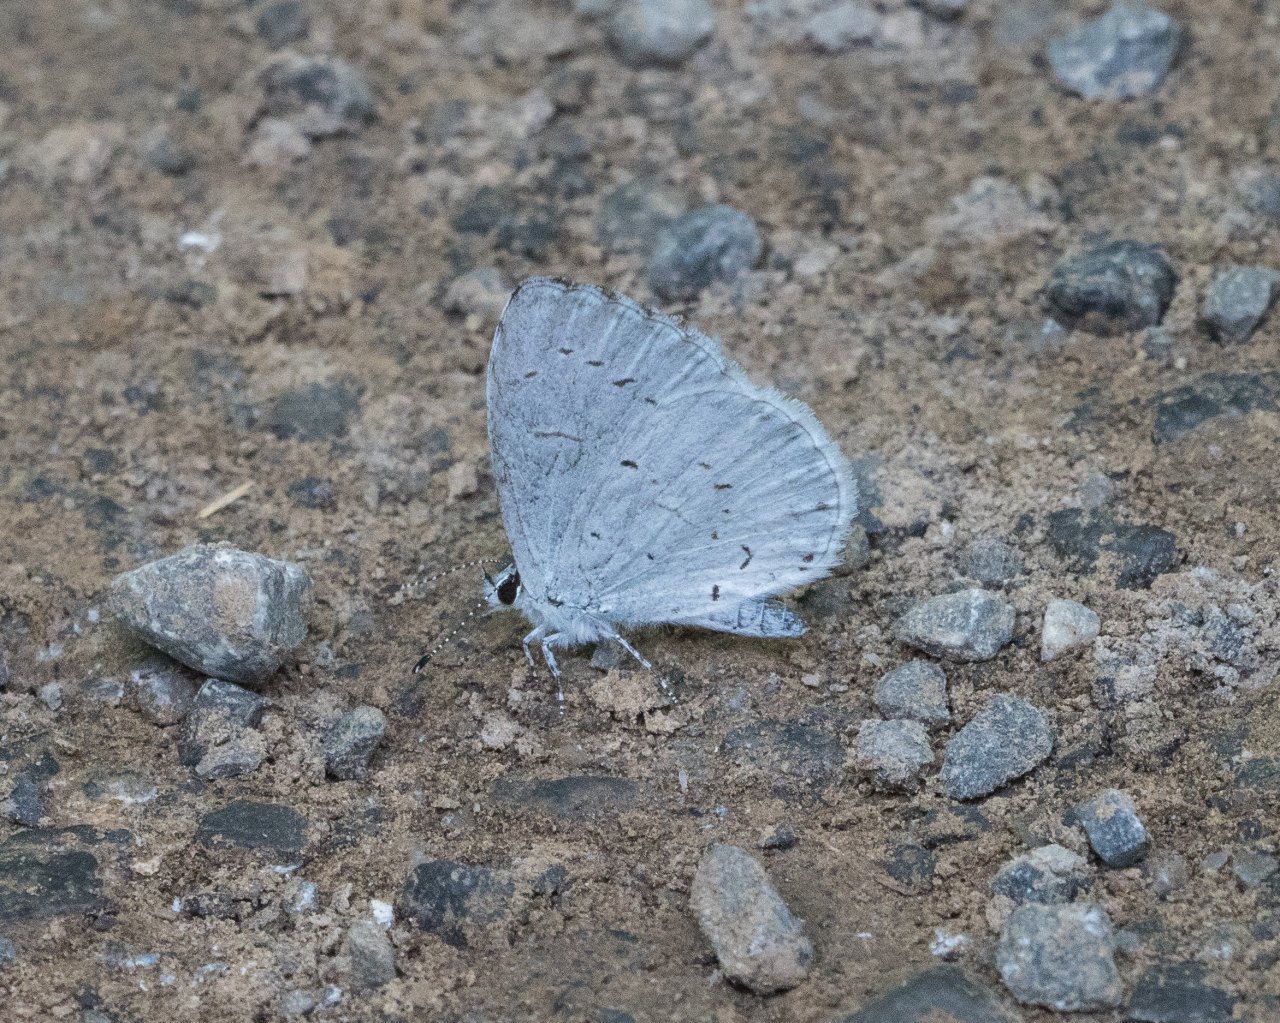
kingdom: Animalia
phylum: Arthropoda
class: Insecta
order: Lepidoptera
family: Lycaenidae
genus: Cyaniris
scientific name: Cyaniris neglecta
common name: Summer Azure
